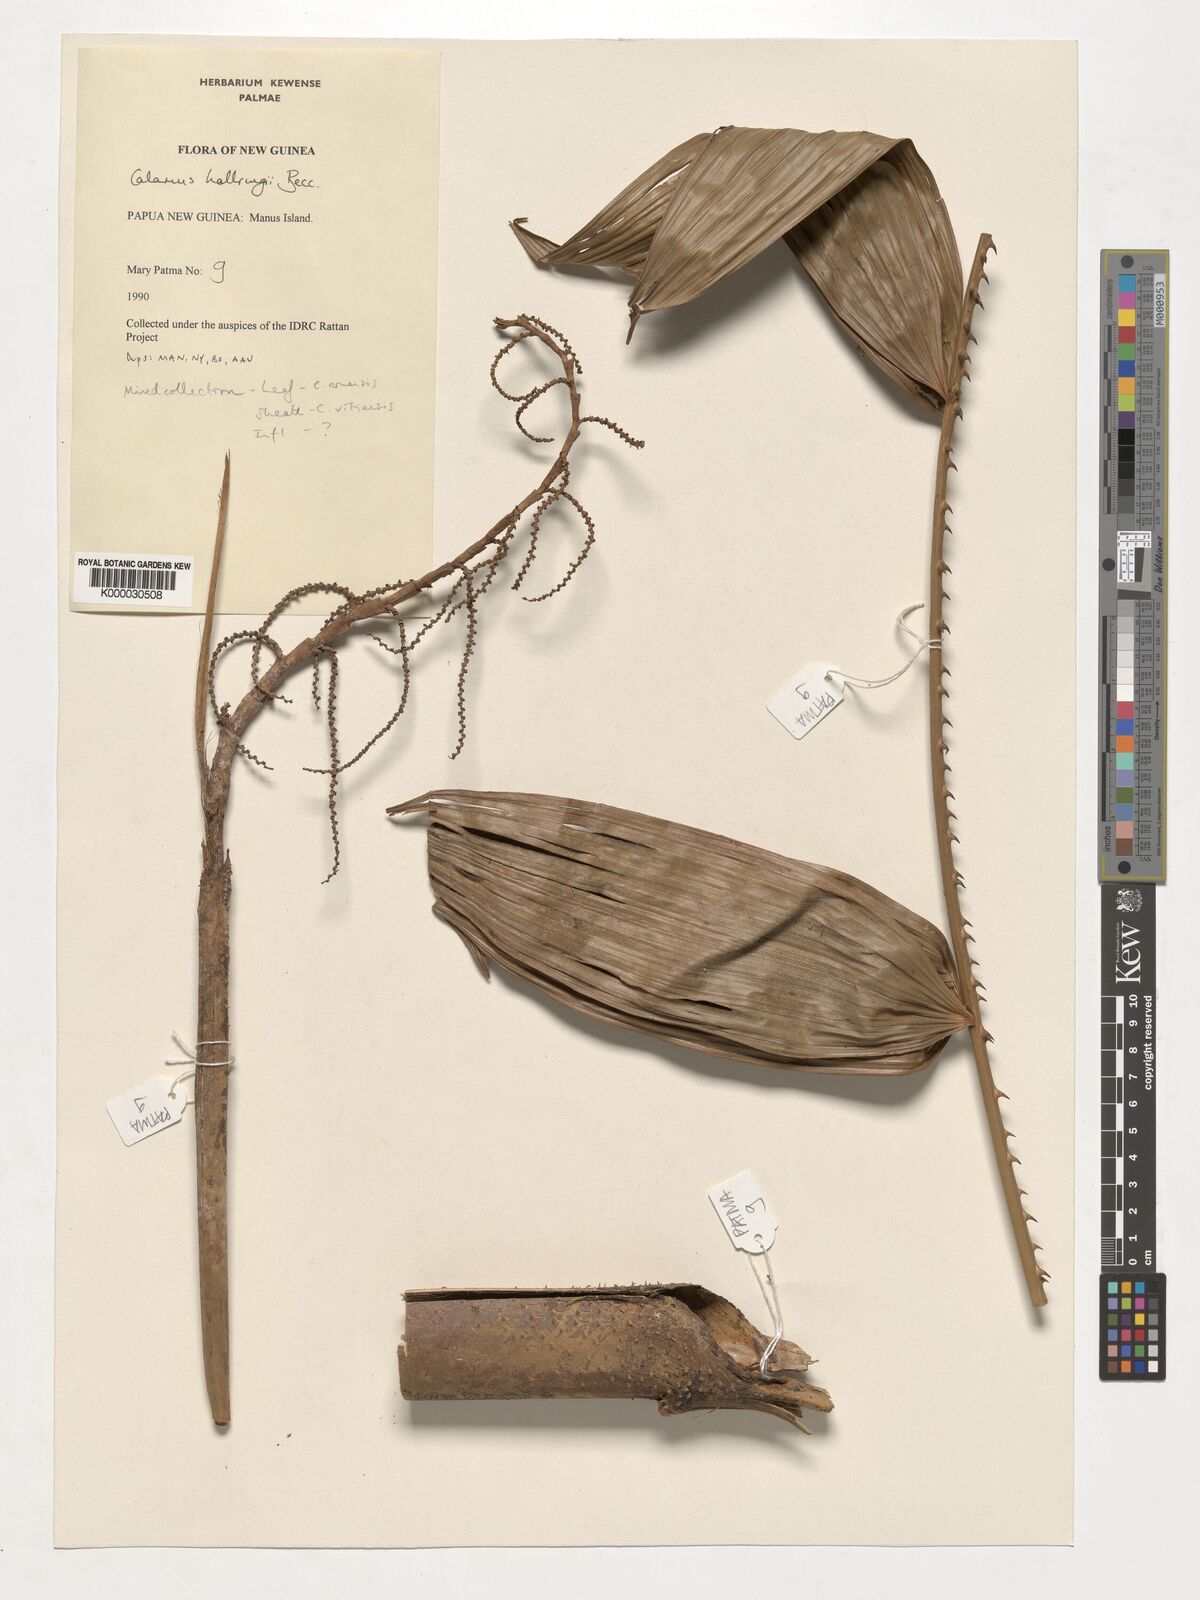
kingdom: Plantae
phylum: Tracheophyta
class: Liliopsida
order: Arecales
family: Arecaceae
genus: Calamus
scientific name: Calamus
